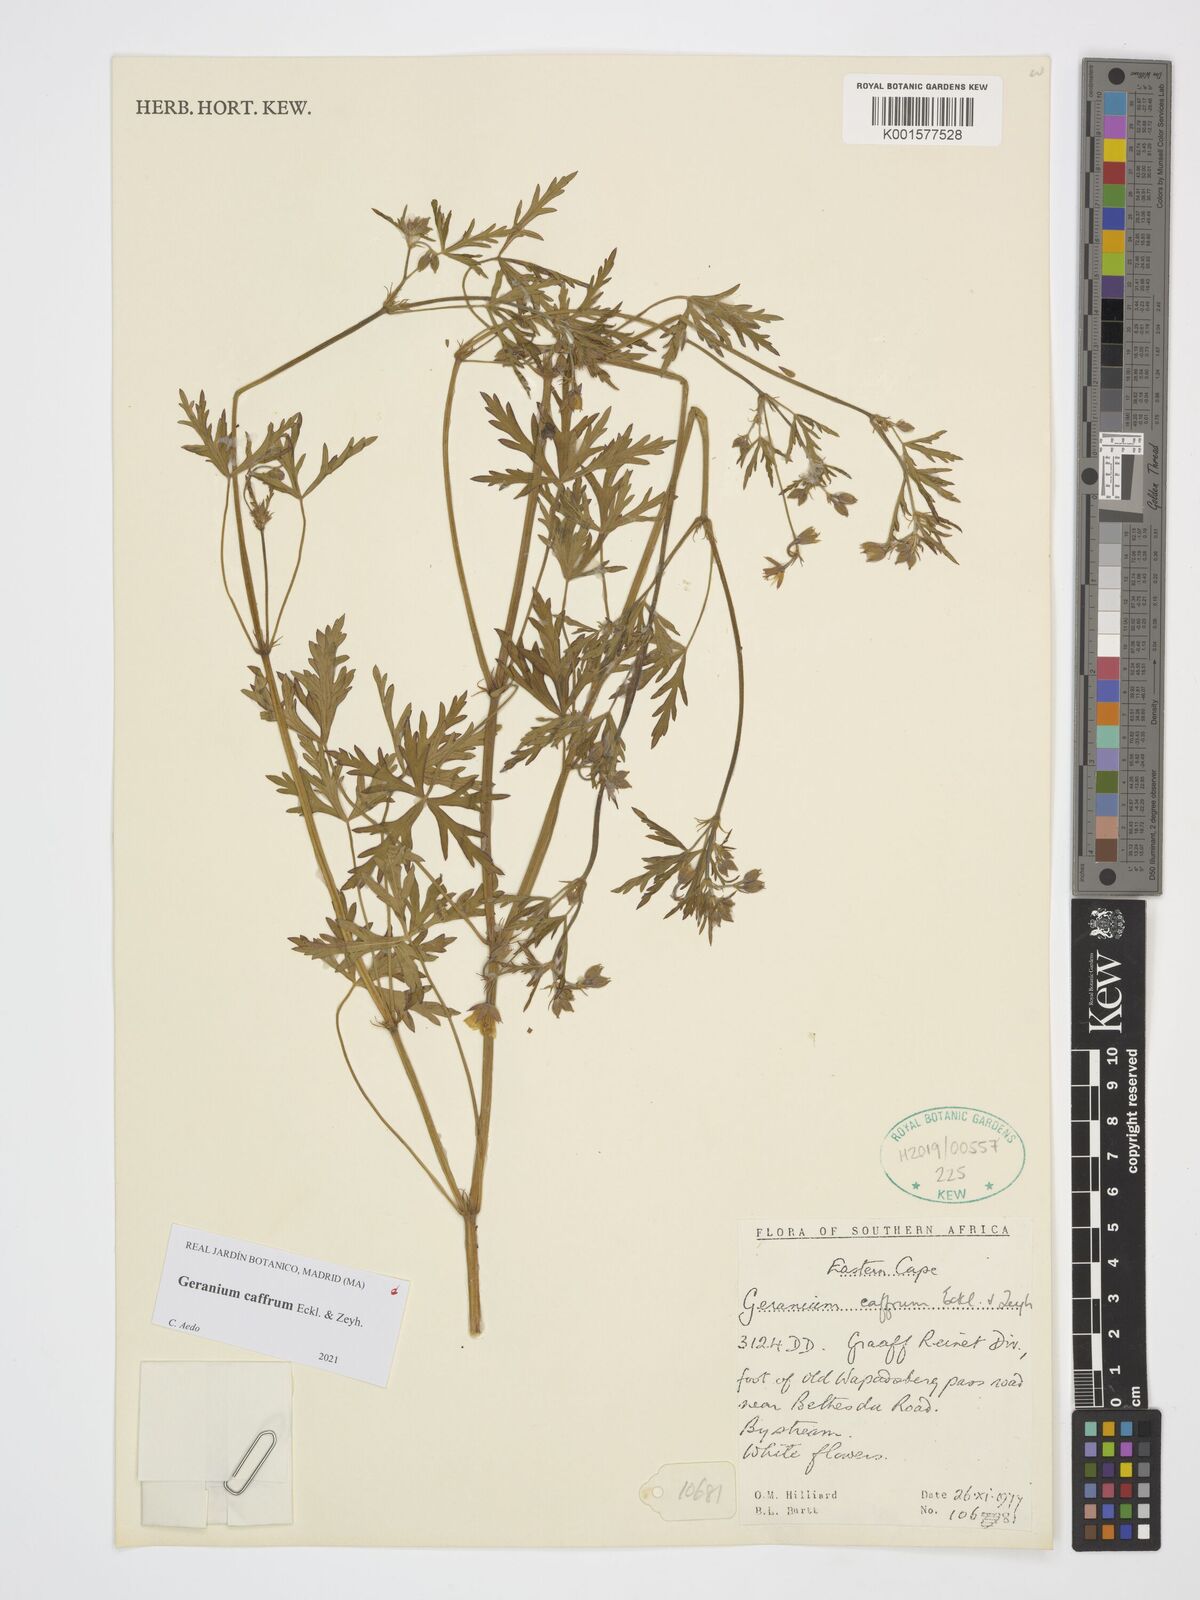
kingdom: Plantae
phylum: Tracheophyta
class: Magnoliopsida
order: Geraniales
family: Geraniaceae
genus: Geranium
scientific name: Geranium caffrum
